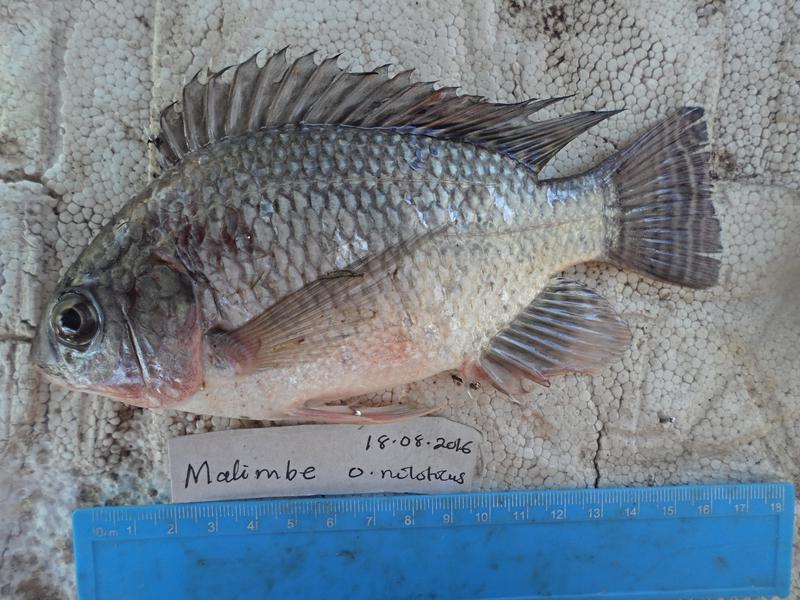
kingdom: Animalia
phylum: Chordata
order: Perciformes
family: Cichlidae
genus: Oreochromis
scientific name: Oreochromis niloticus
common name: Nile tilapia
